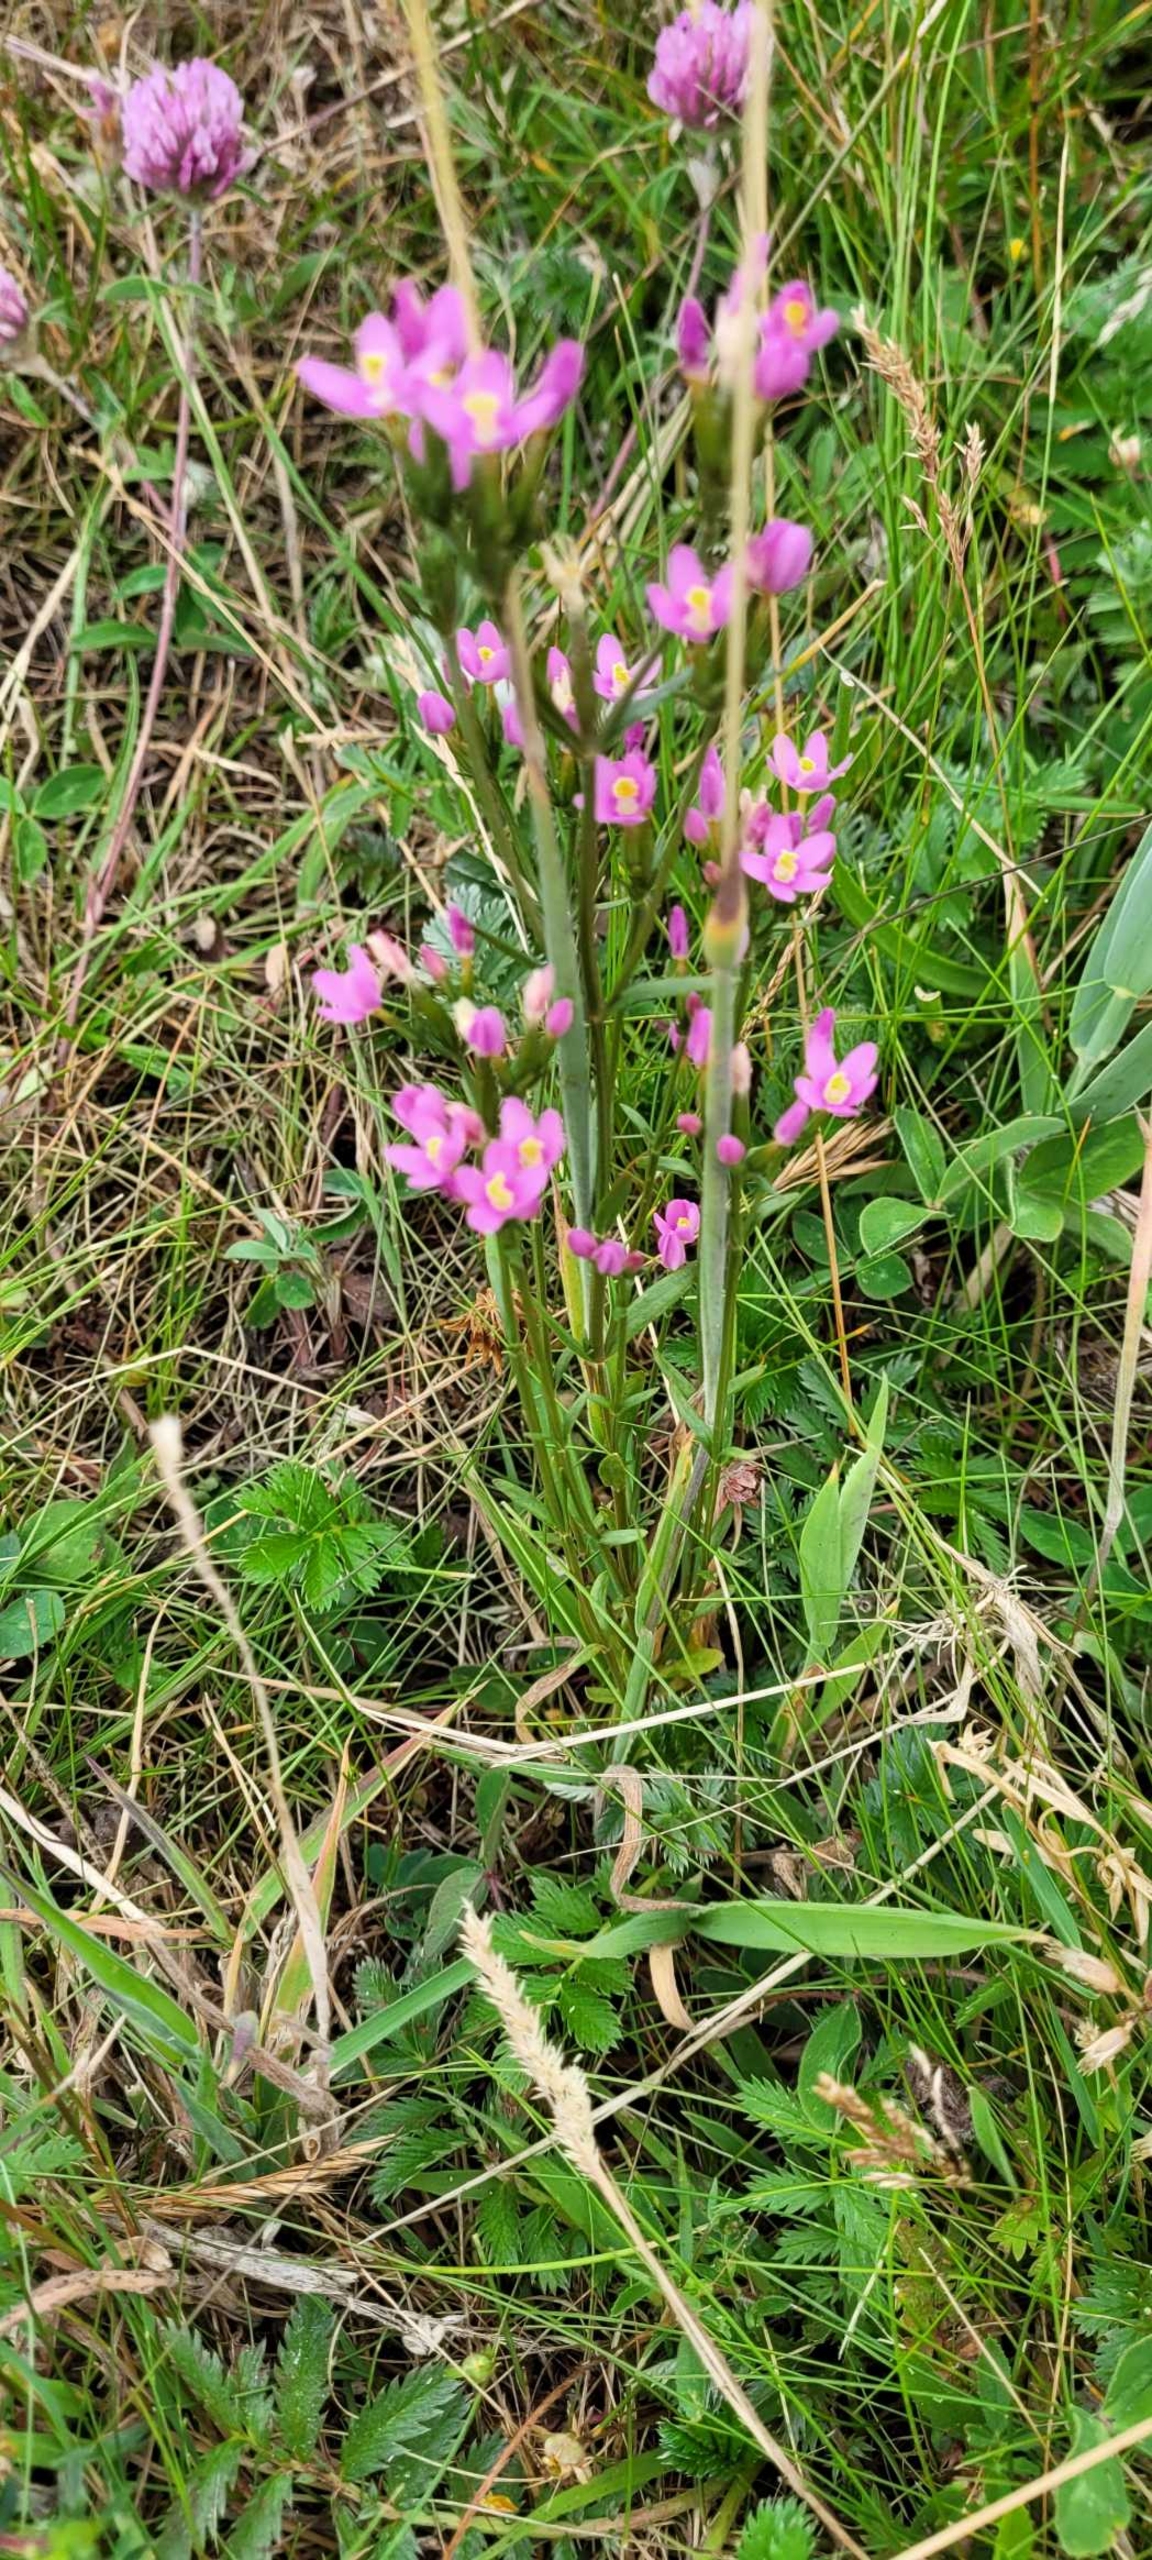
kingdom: Plantae
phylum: Tracheophyta
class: Magnoliopsida
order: Gentianales
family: Gentianaceae
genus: Centaurium
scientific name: Centaurium littorale
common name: Strand-tusindgylden
